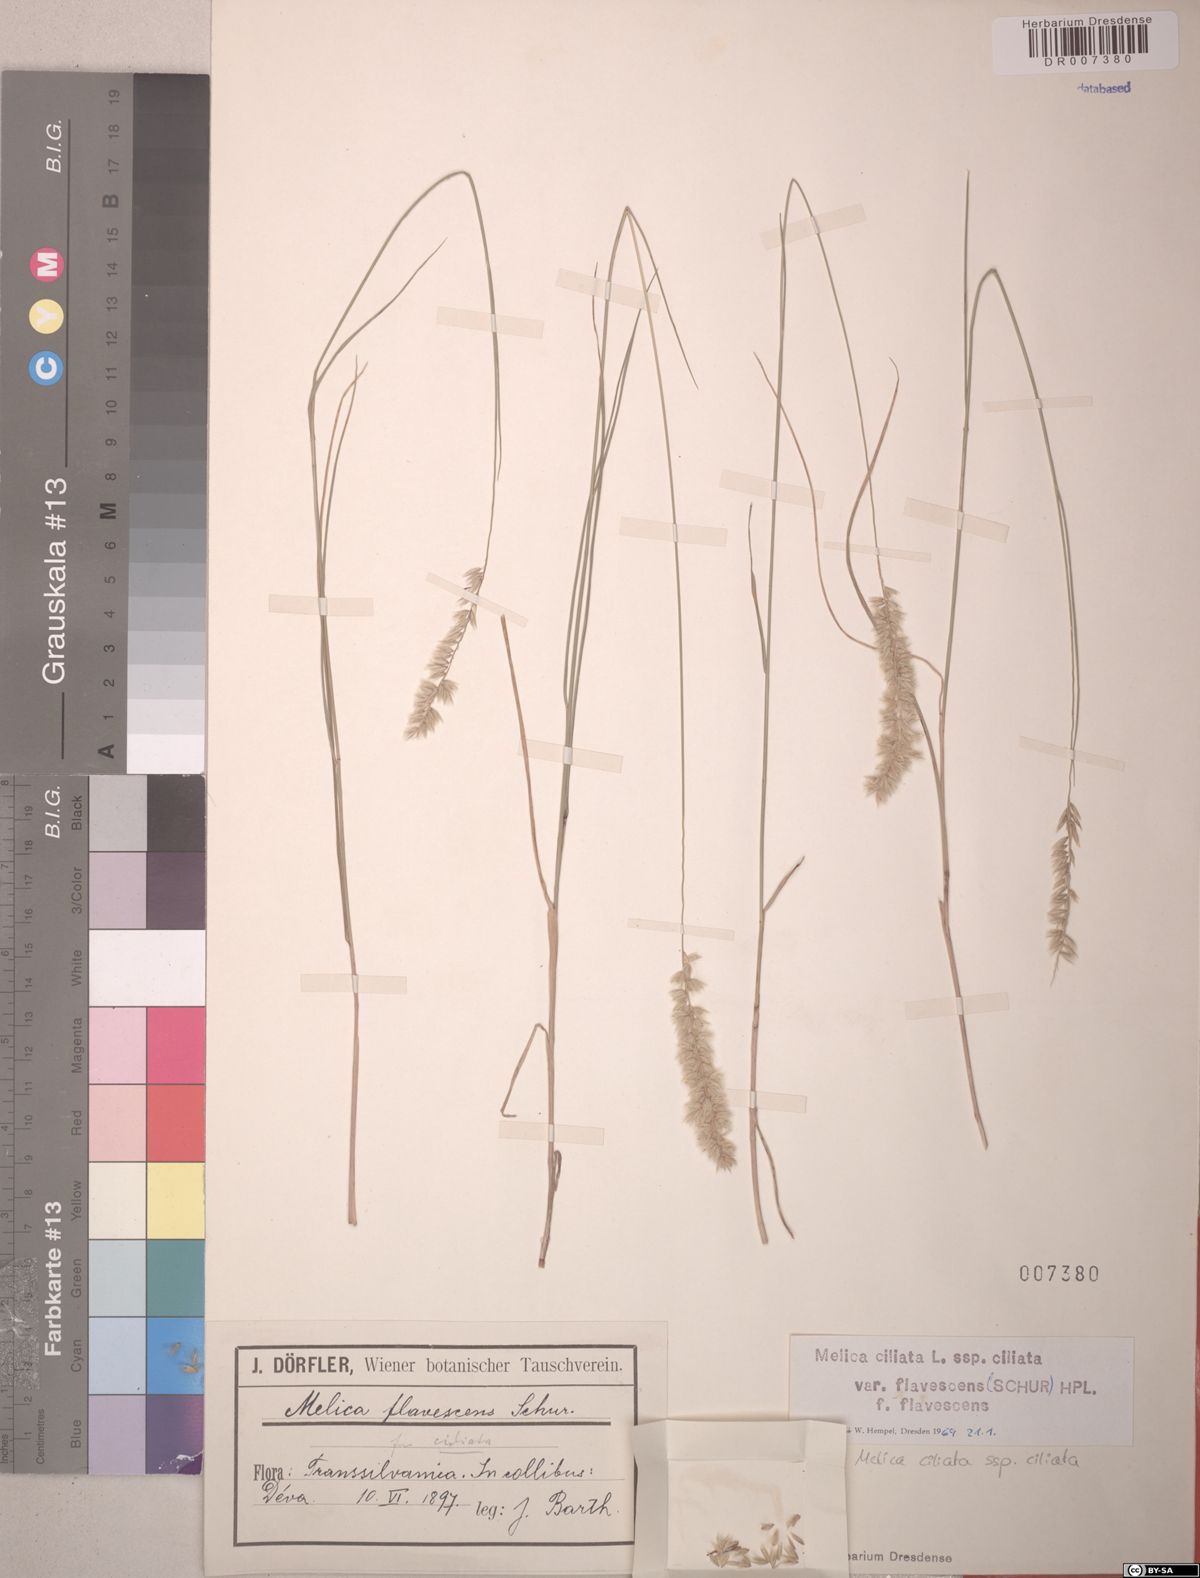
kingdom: Plantae
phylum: Tracheophyta
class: Liliopsida
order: Poales
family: Poaceae
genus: Melica
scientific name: Melica ciliata
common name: Hairy melicgrass
